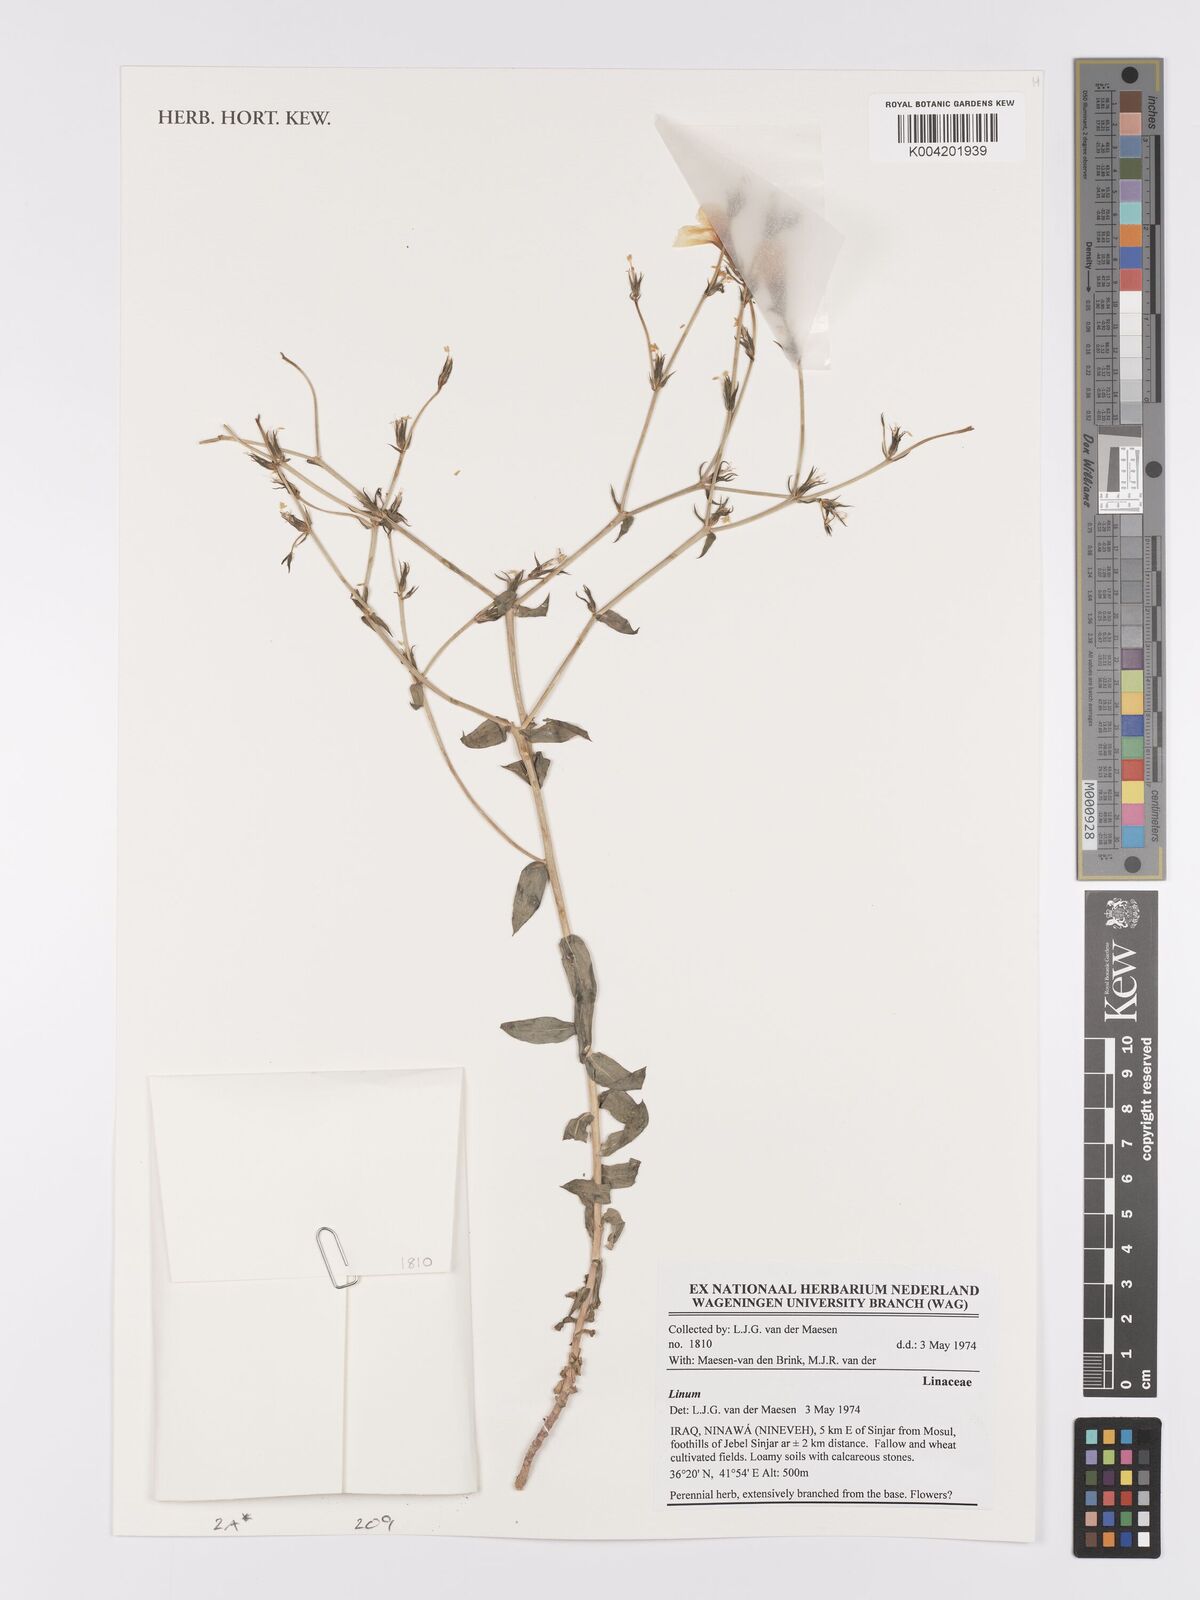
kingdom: Plantae
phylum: Tracheophyta
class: Magnoliopsida
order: Malpighiales
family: Linaceae
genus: Linum
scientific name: Linum
